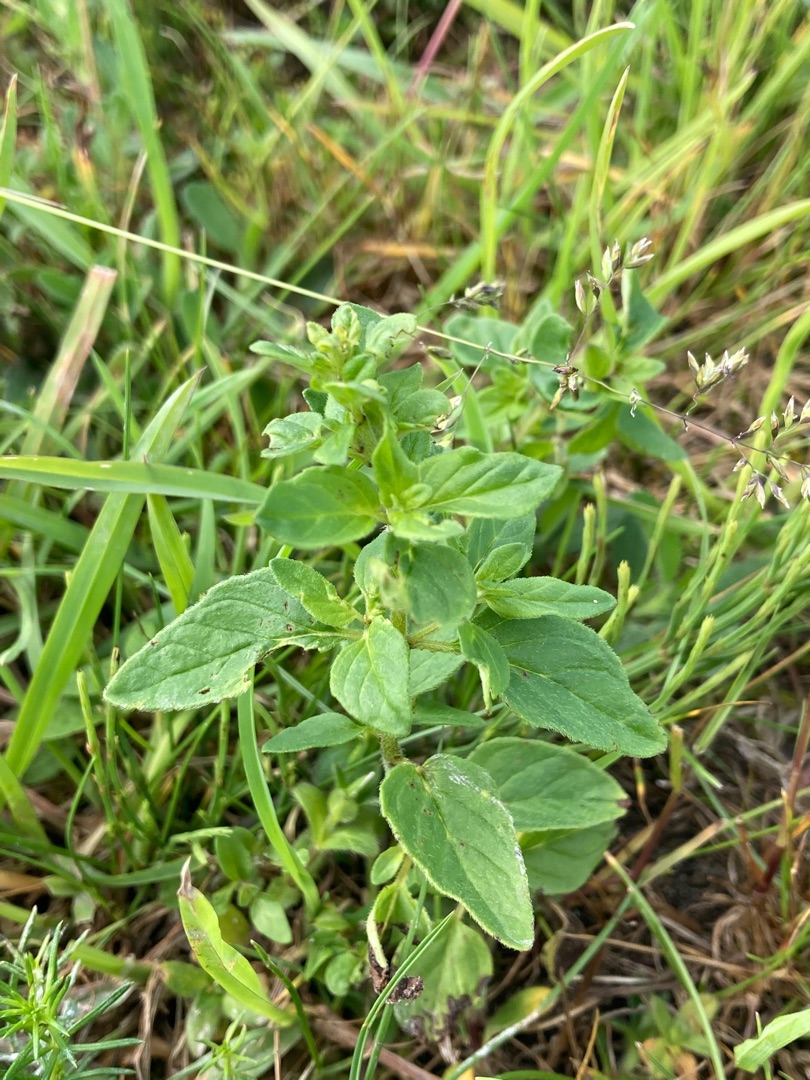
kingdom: Plantae
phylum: Tracheophyta
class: Magnoliopsida
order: Lamiales
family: Lamiaceae
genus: Origanum
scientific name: Origanum vulgare
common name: Merian
